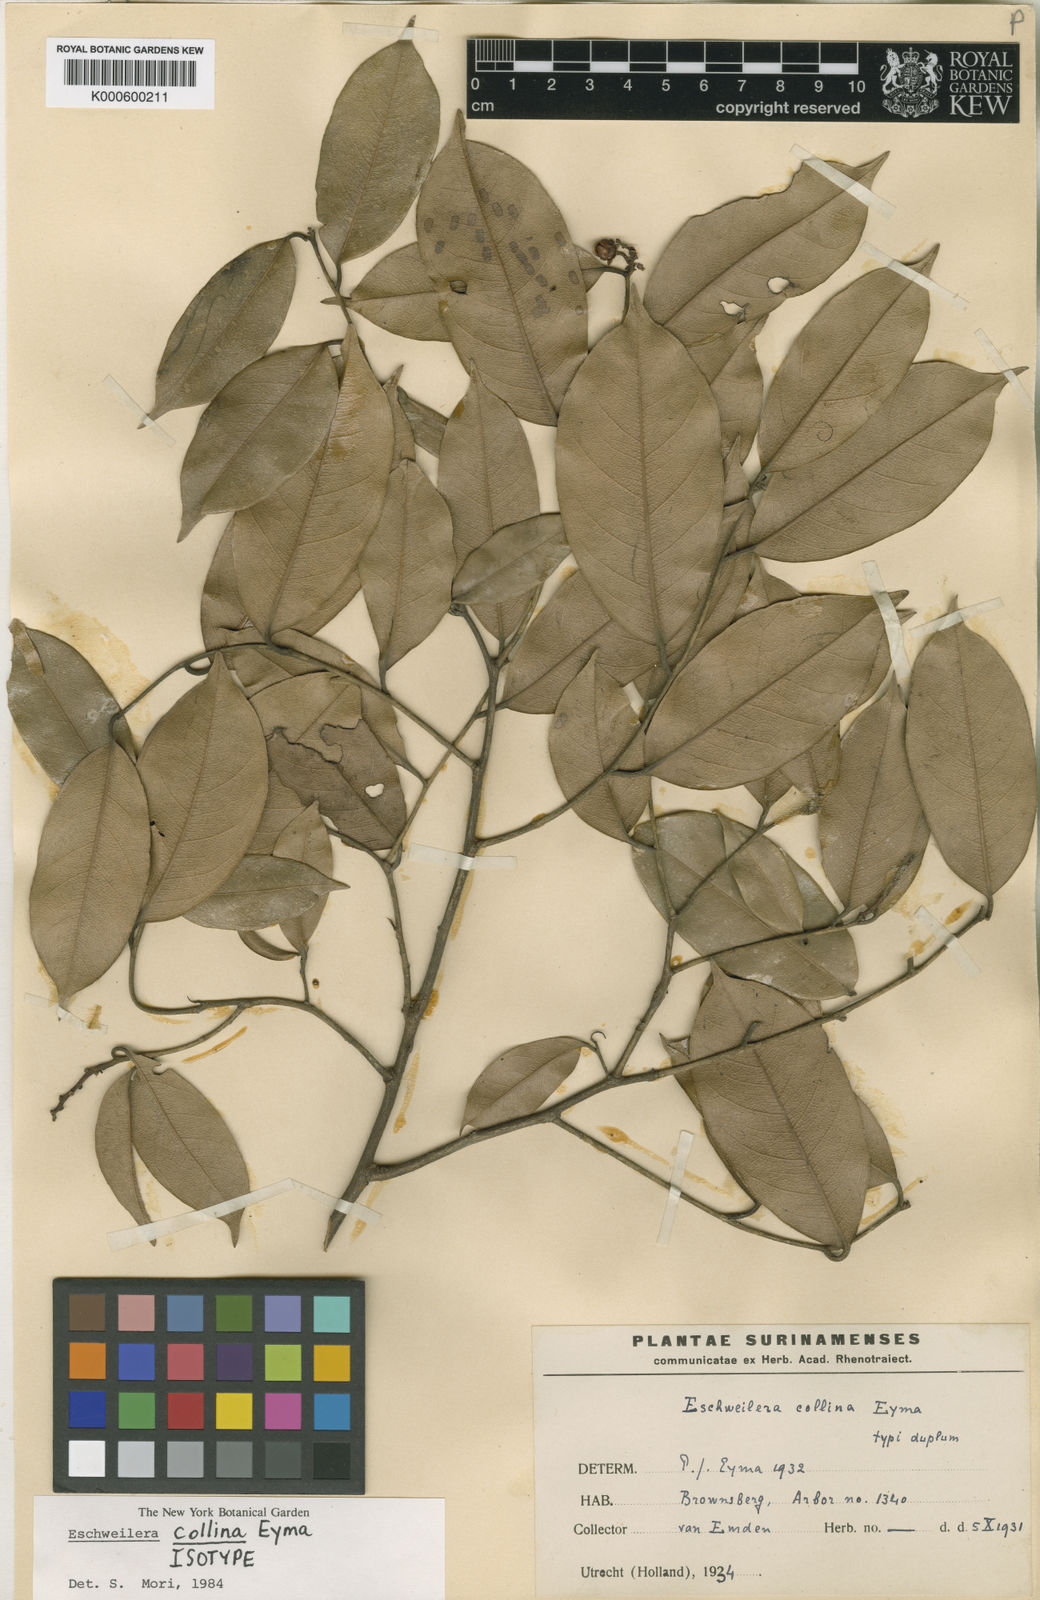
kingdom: Plantae
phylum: Tracheophyta
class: Magnoliopsida
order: Ericales
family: Lecythidaceae
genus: Eschweilera
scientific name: Eschweilera collina
